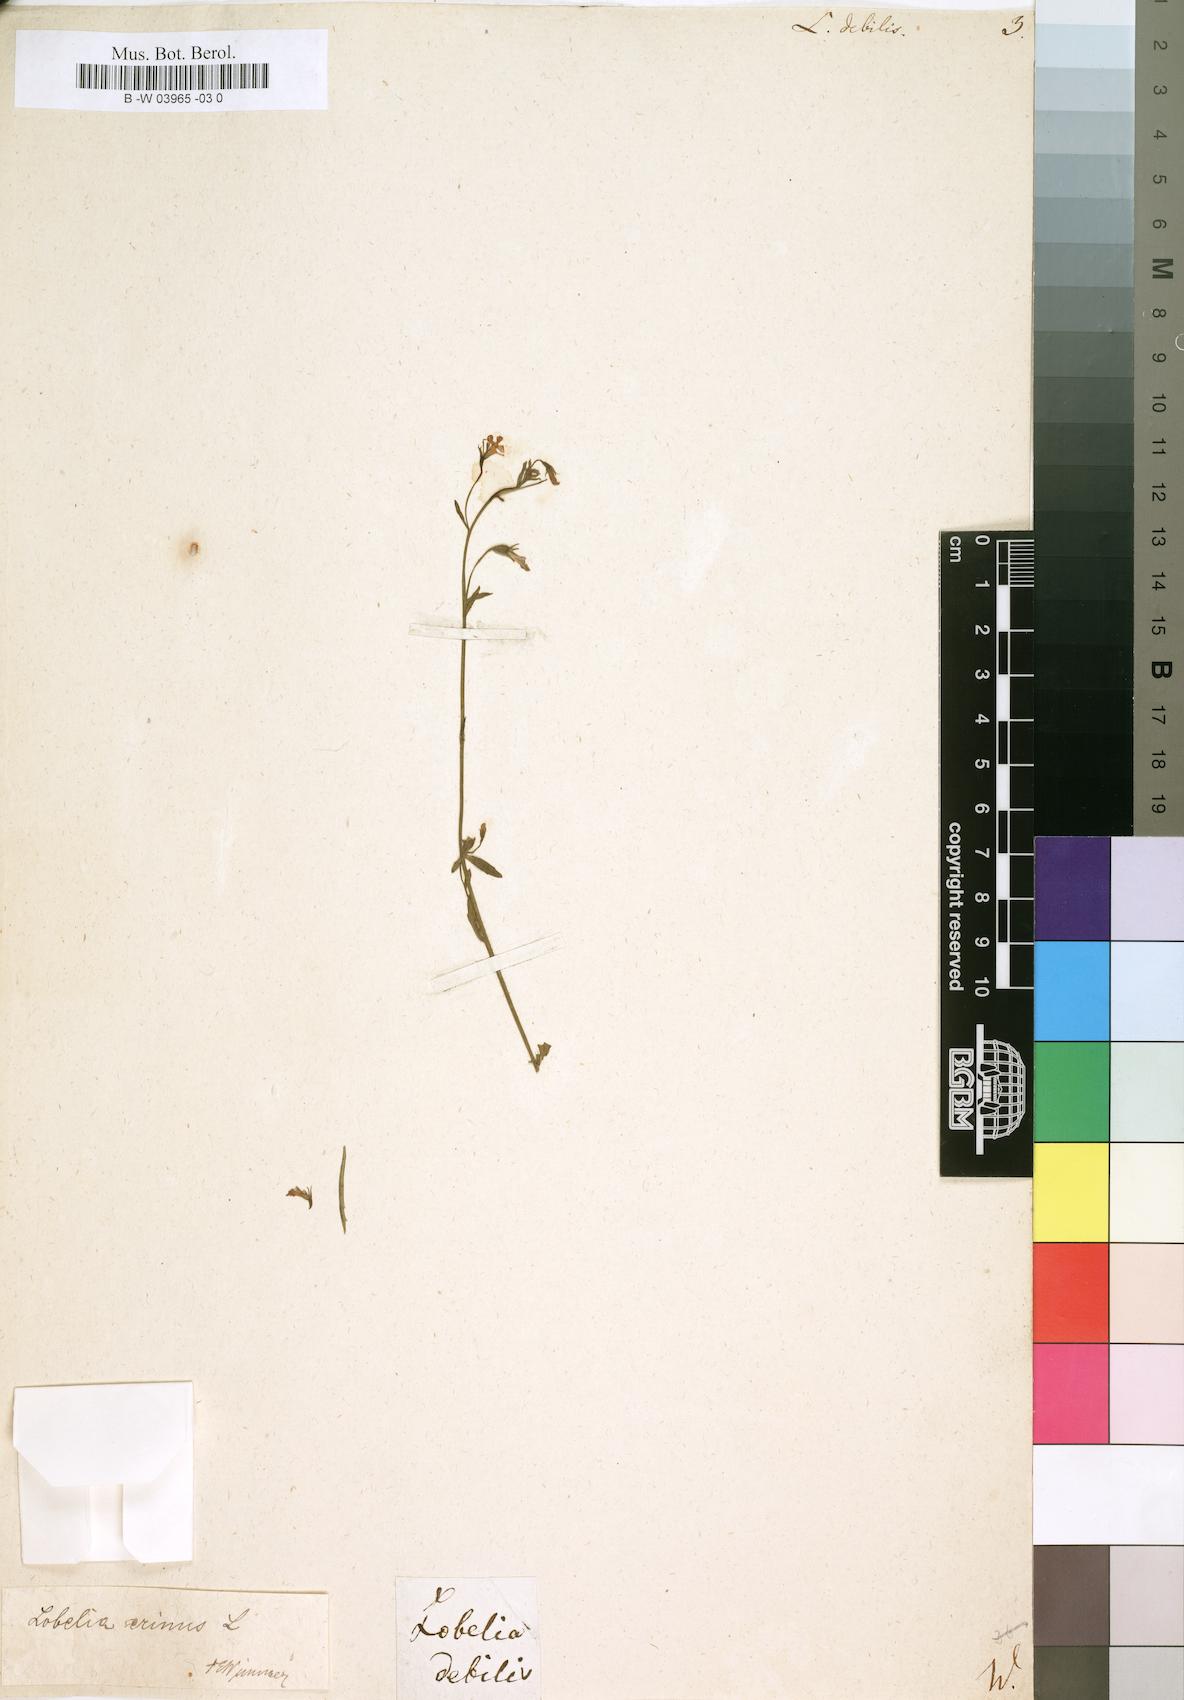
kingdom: Plantae
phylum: Tracheophyta
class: Magnoliopsida
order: Asterales
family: Campanulaceae
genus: Lobelia
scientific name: Lobelia debilis
